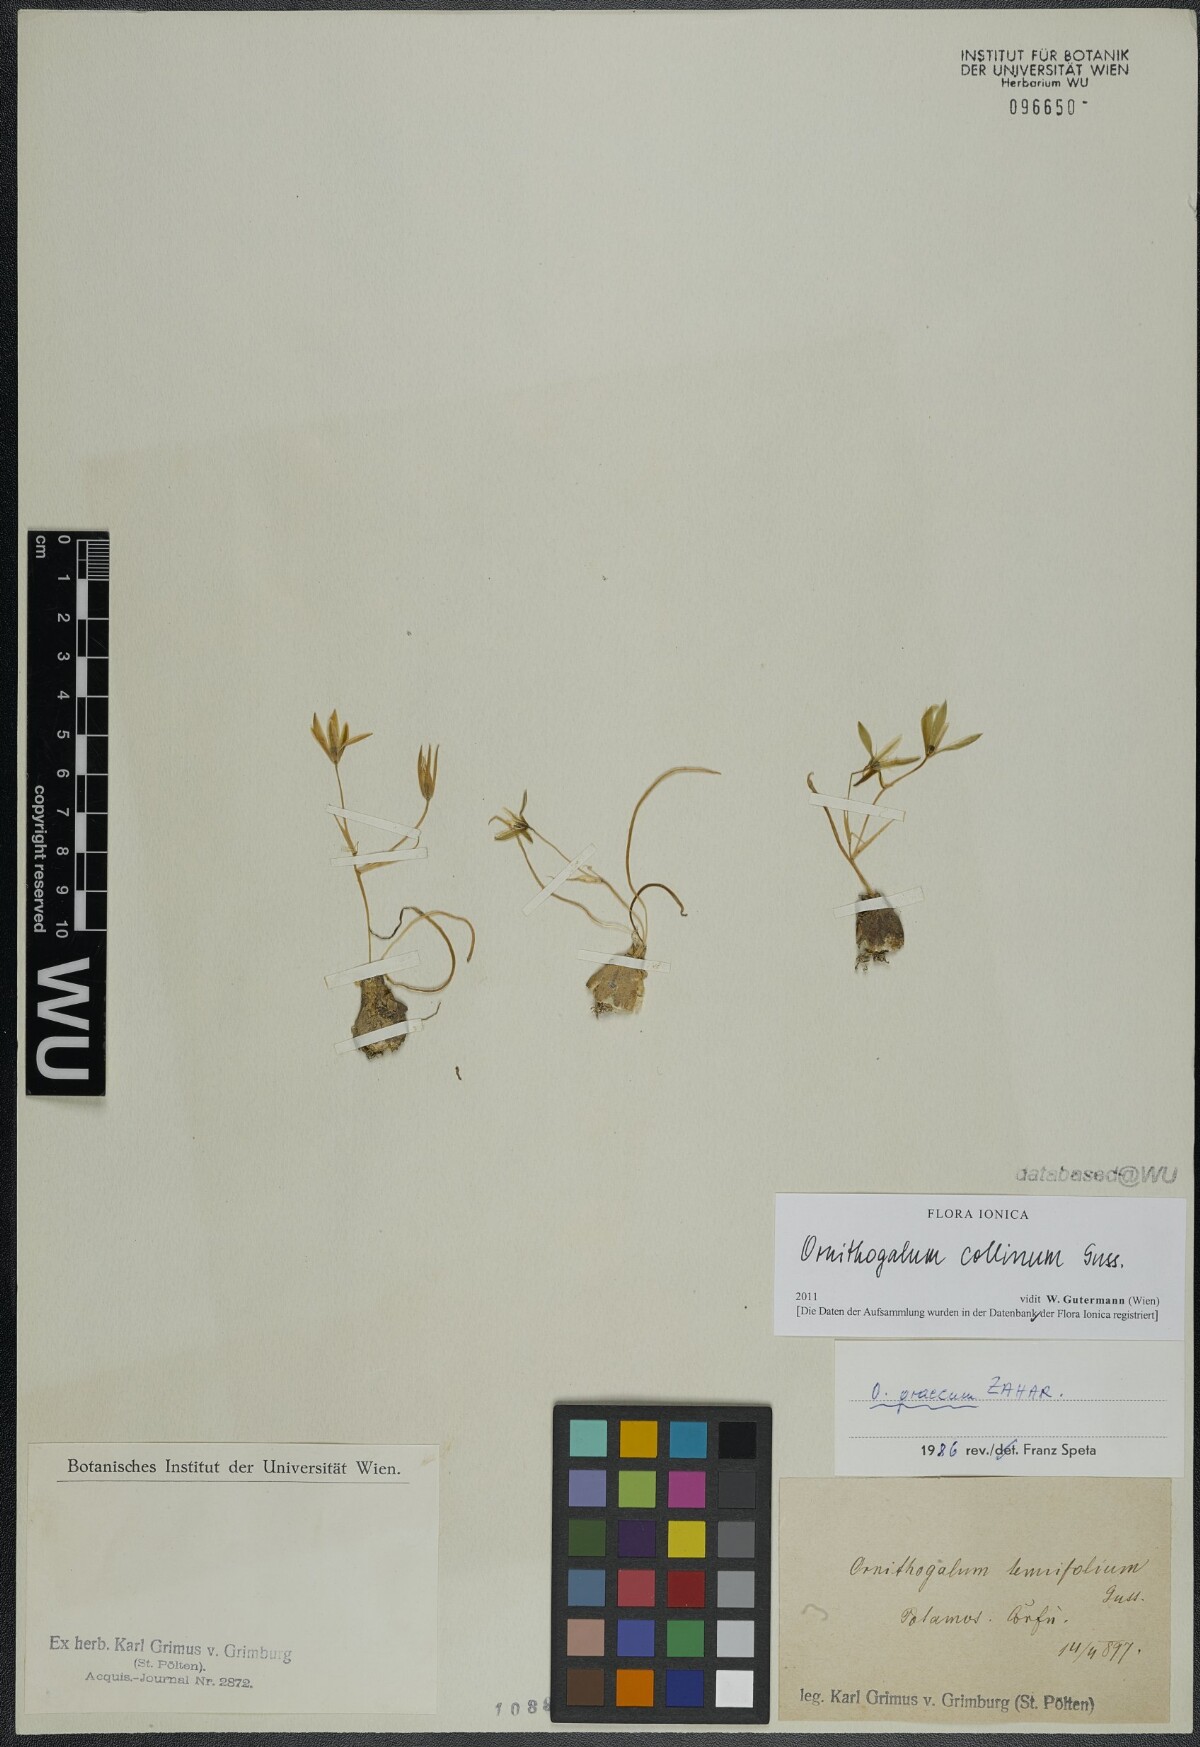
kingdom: Plantae
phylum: Tracheophyta
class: Liliopsida
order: Asparagales
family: Asparagaceae
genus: Ornithogalum
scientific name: Ornithogalum collinum
